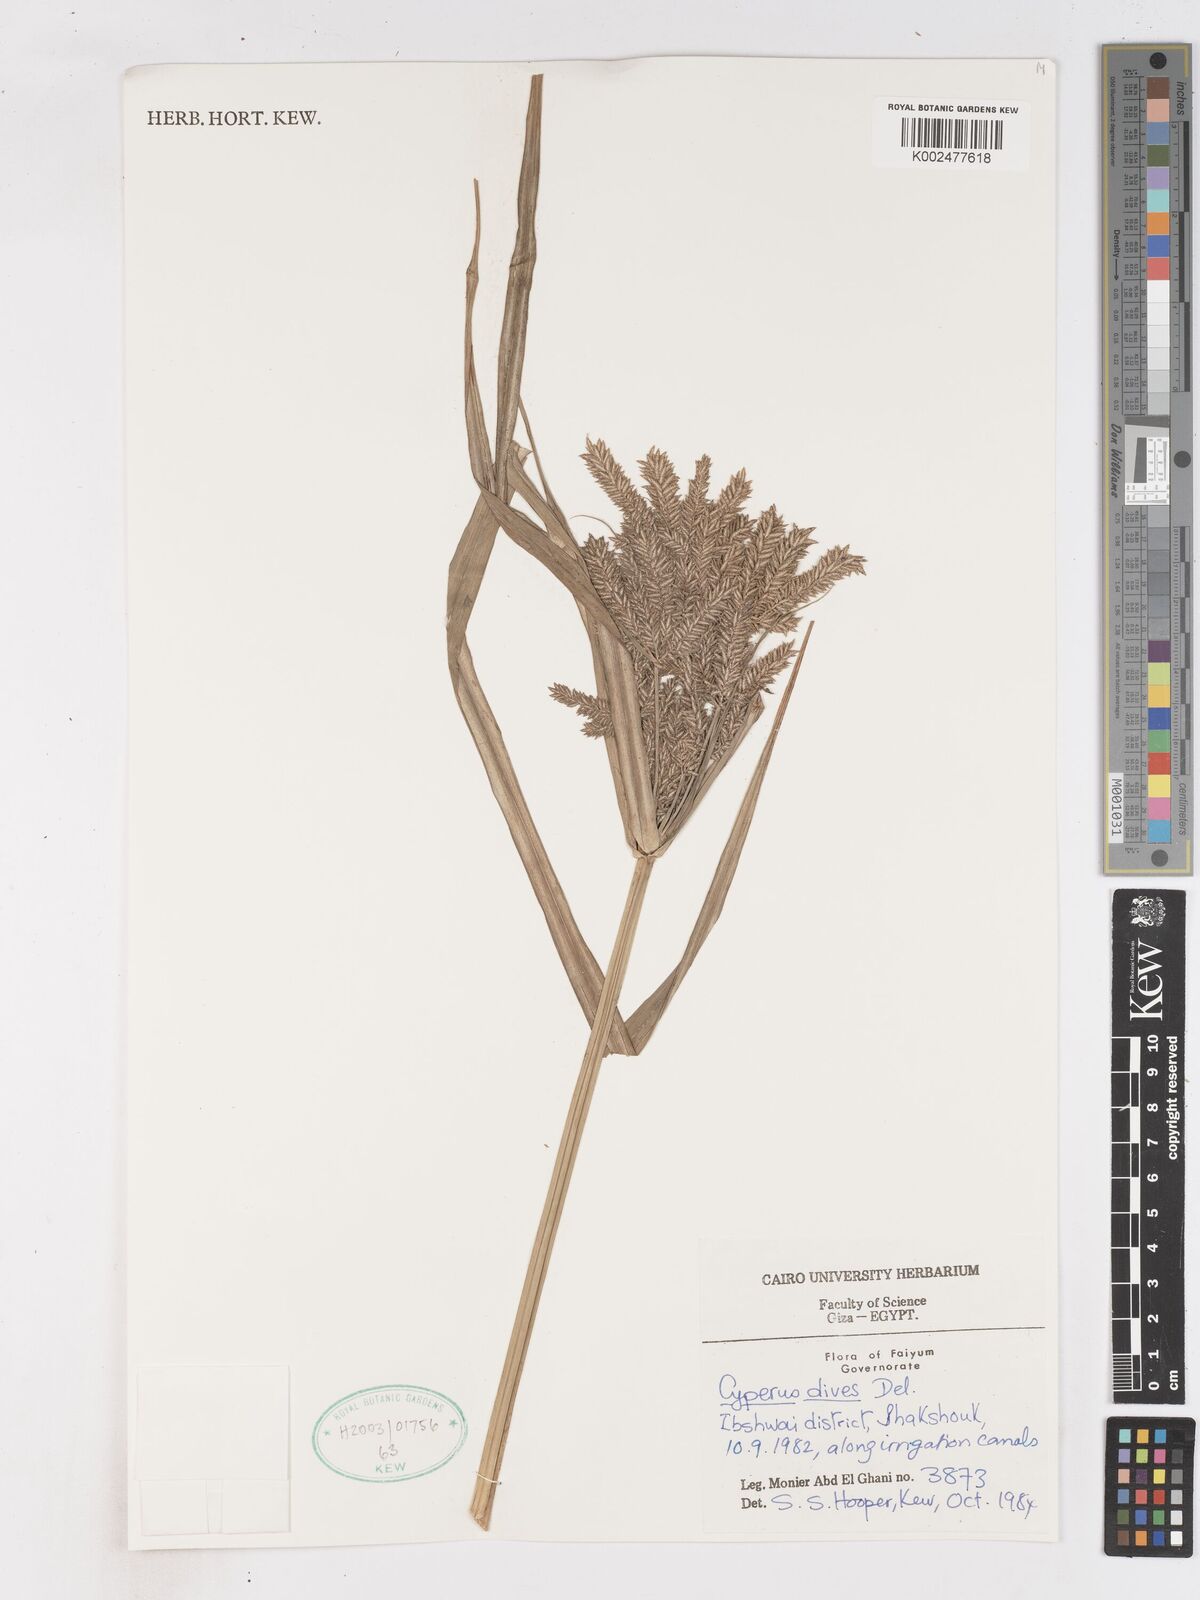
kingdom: Plantae
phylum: Tracheophyta
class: Liliopsida
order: Poales
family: Cyperaceae
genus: Cyperus
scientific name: Cyperus dives
